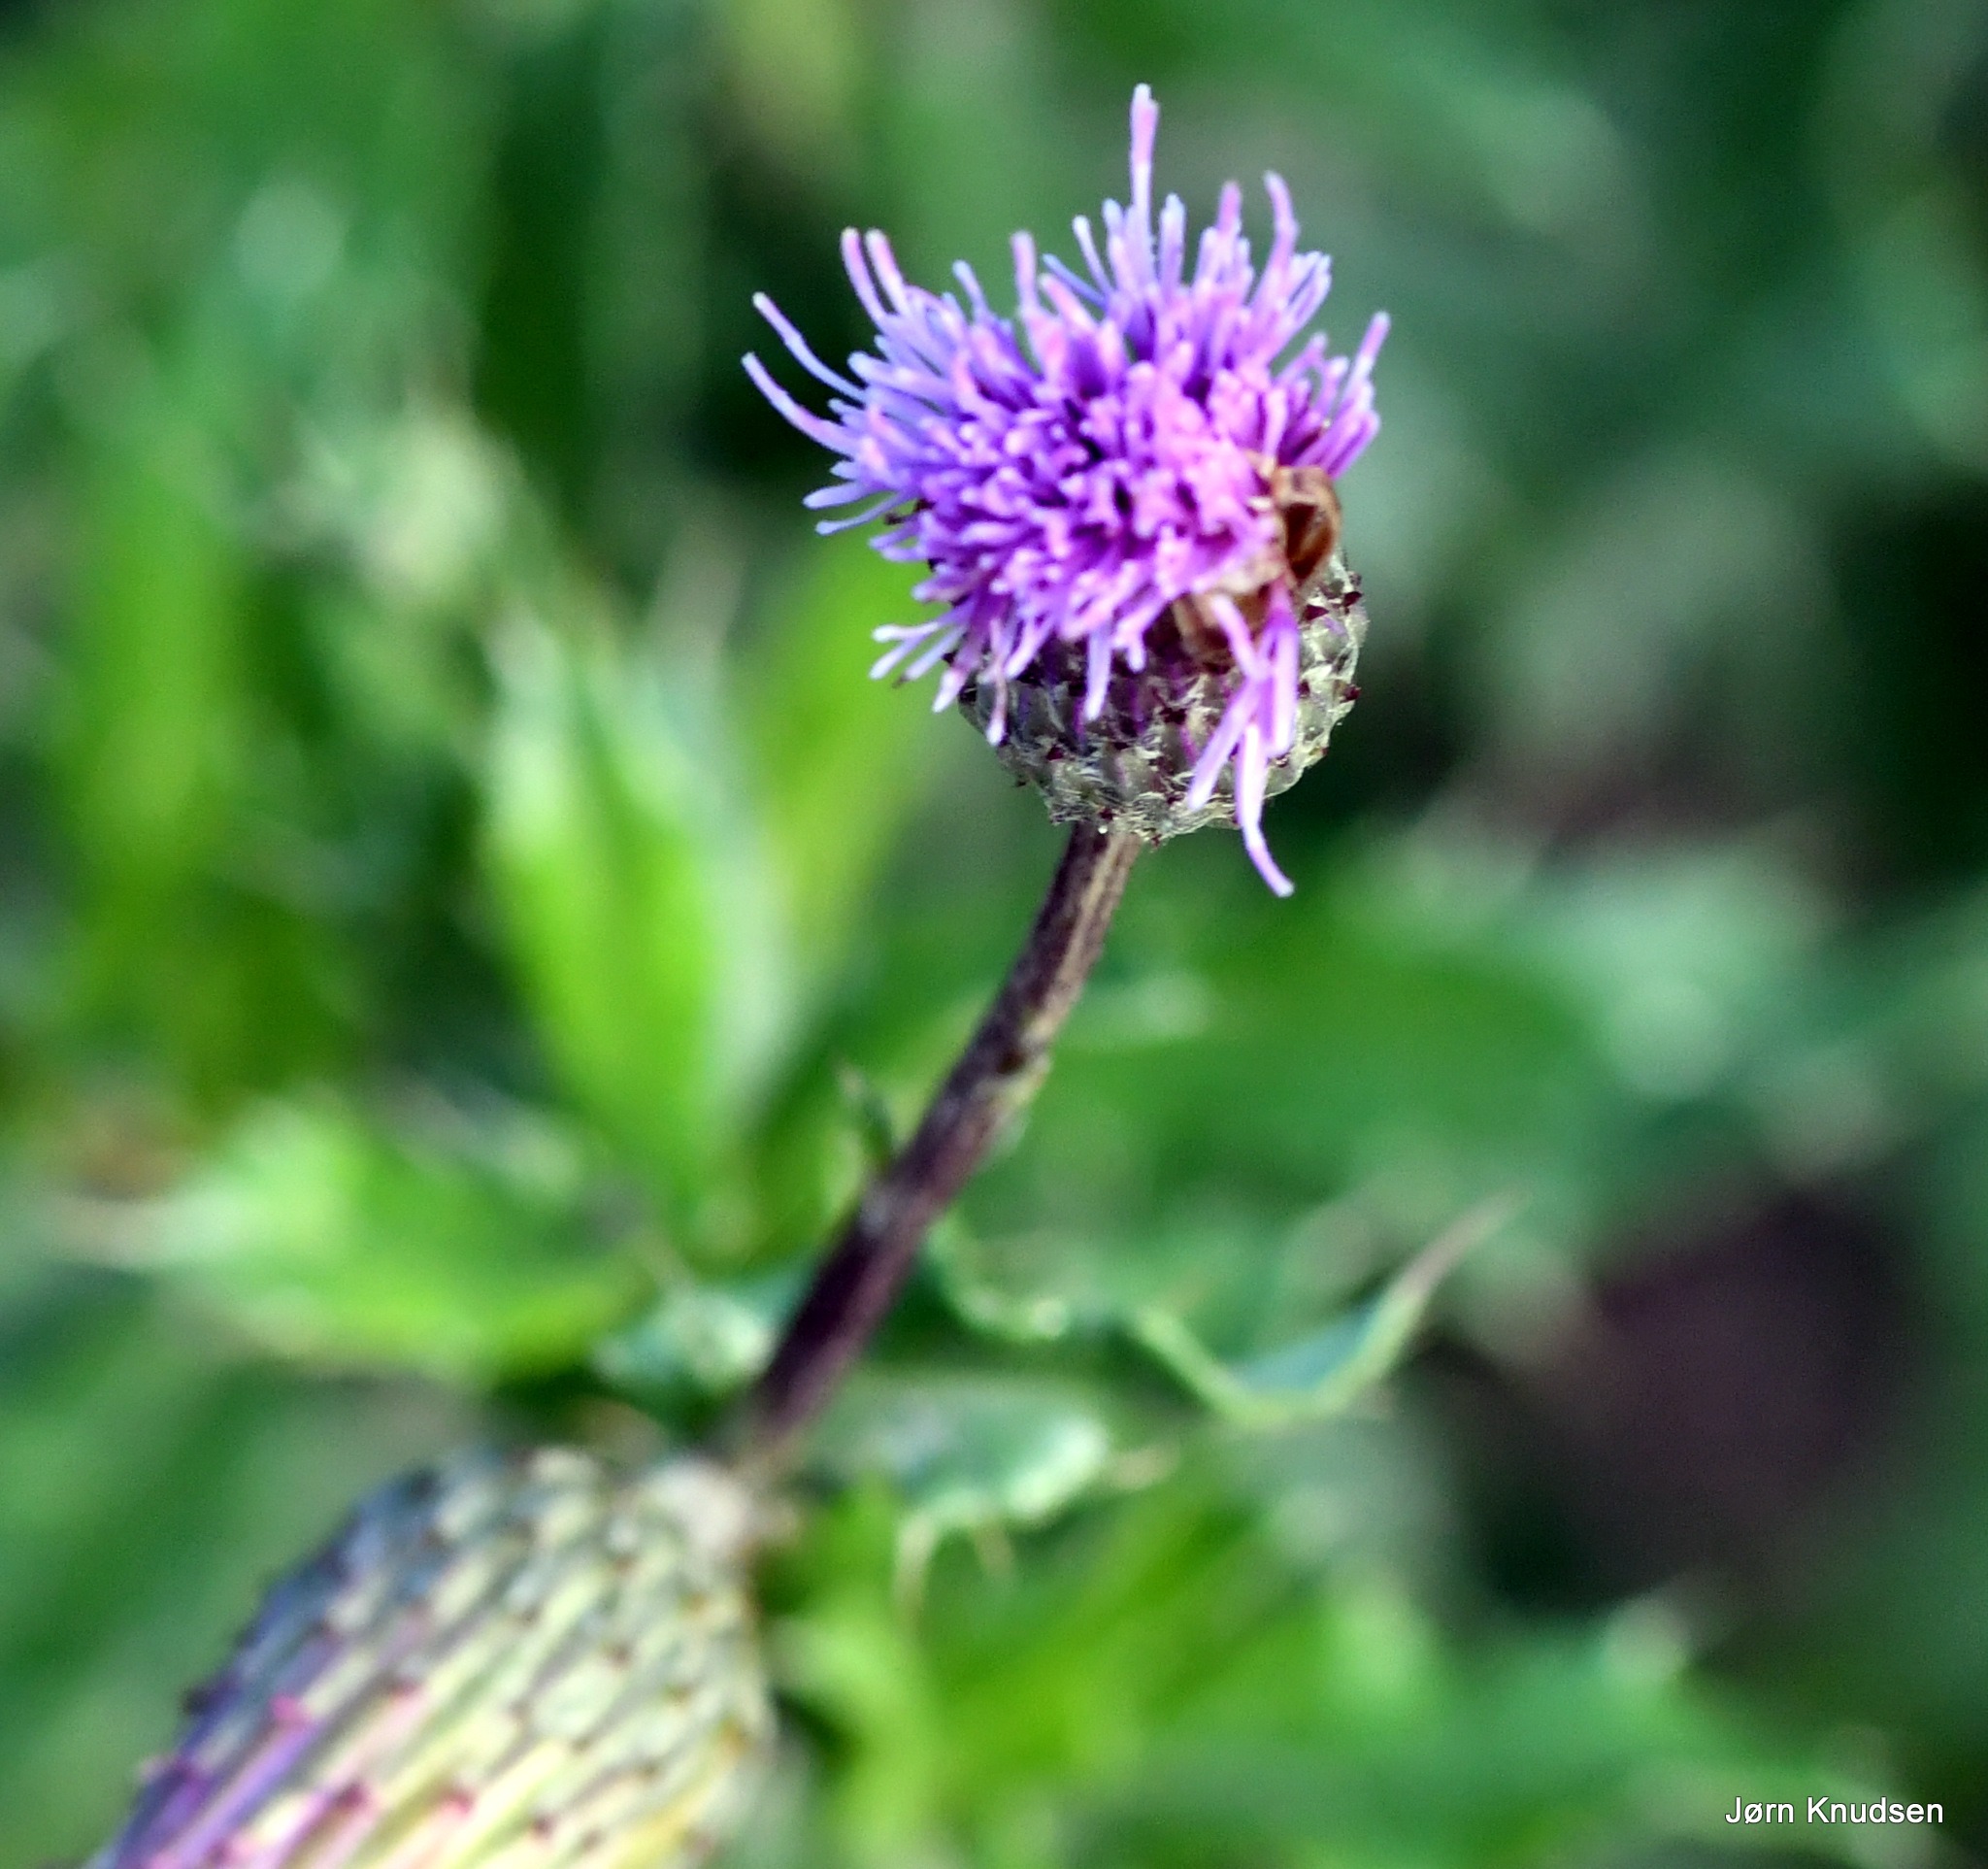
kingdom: Plantae
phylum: Tracheophyta
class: Magnoliopsida
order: Asterales
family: Asteraceae
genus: Cirsium
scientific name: Cirsium arvense
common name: Ager-tidsel
